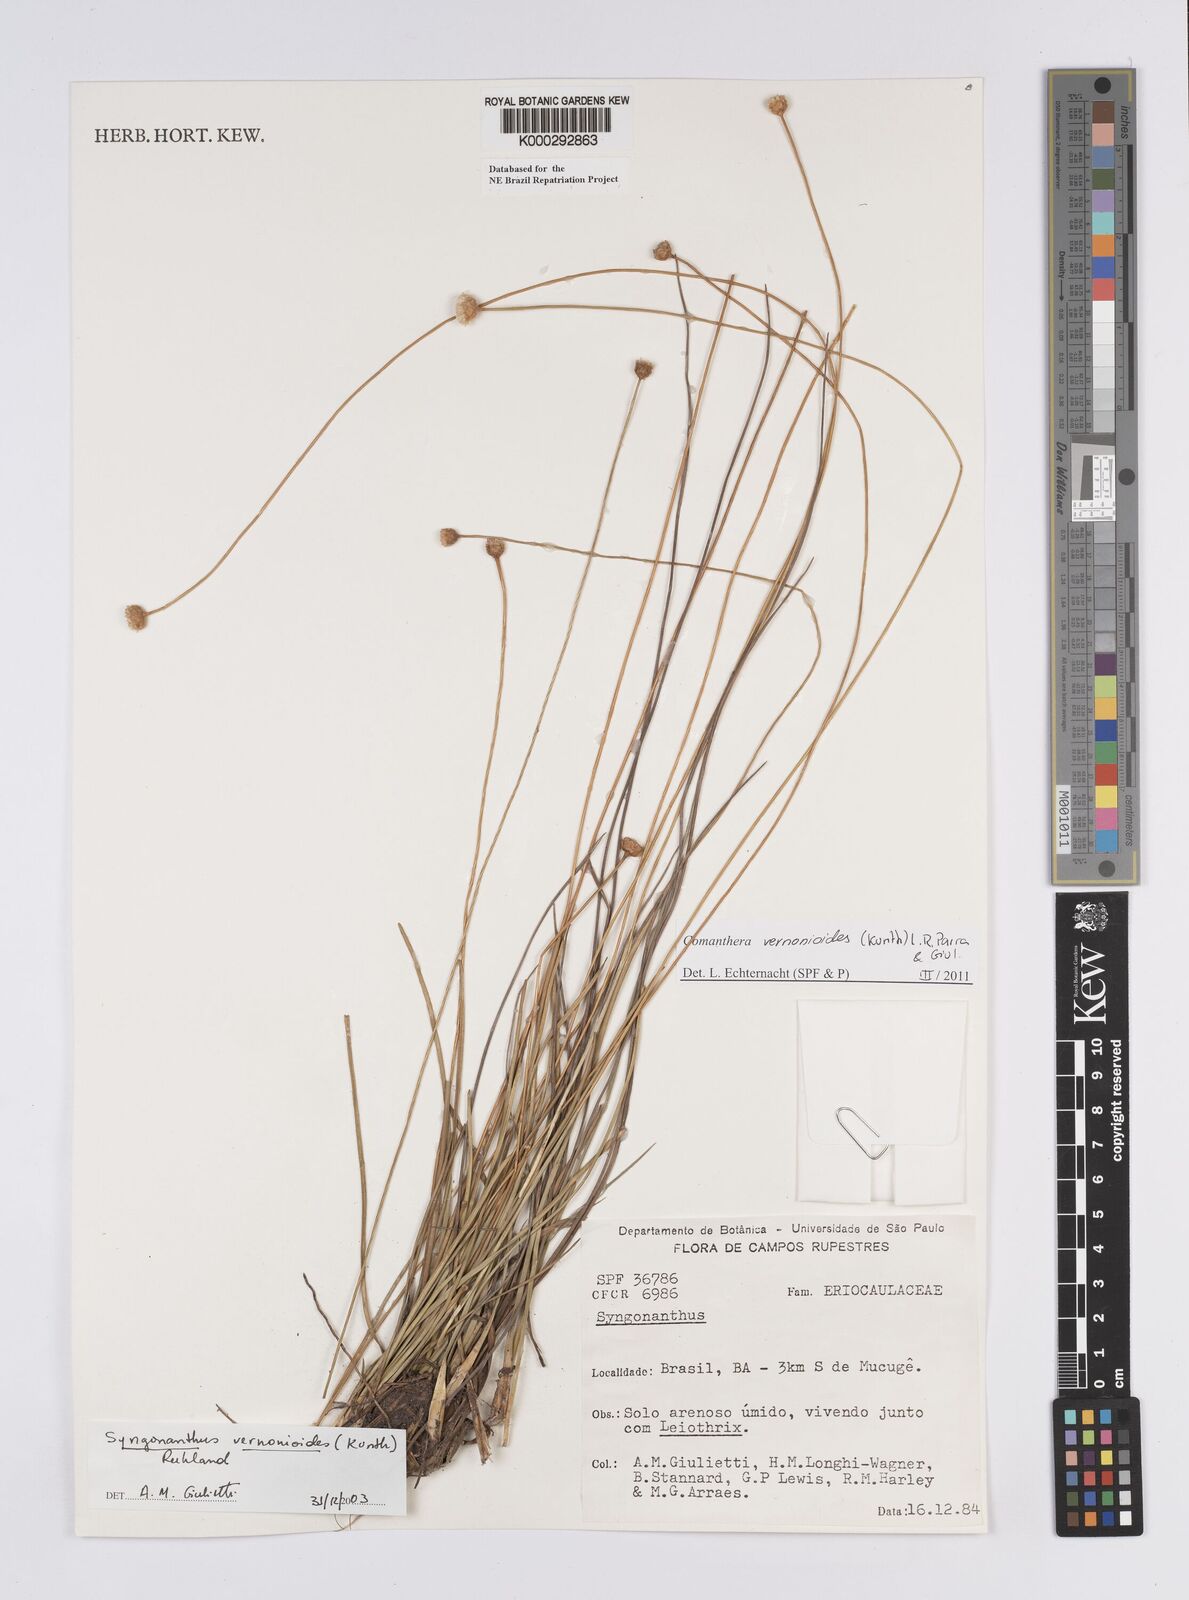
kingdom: Plantae
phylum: Tracheophyta
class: Liliopsida
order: Poales
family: Eriocaulaceae
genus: Comanthera
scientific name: Comanthera centauroides
